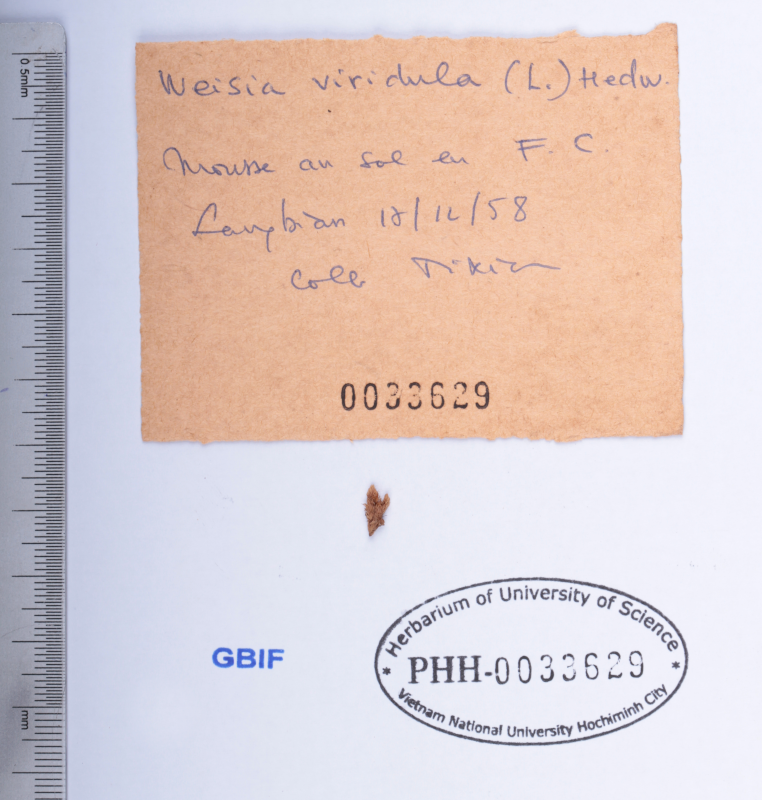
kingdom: Plantae
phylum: Bryophyta
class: Bryopsida
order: Pottiales
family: Pottiaceae
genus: Weissia
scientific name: Weissia controversa
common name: Green-tufted stubble moss
